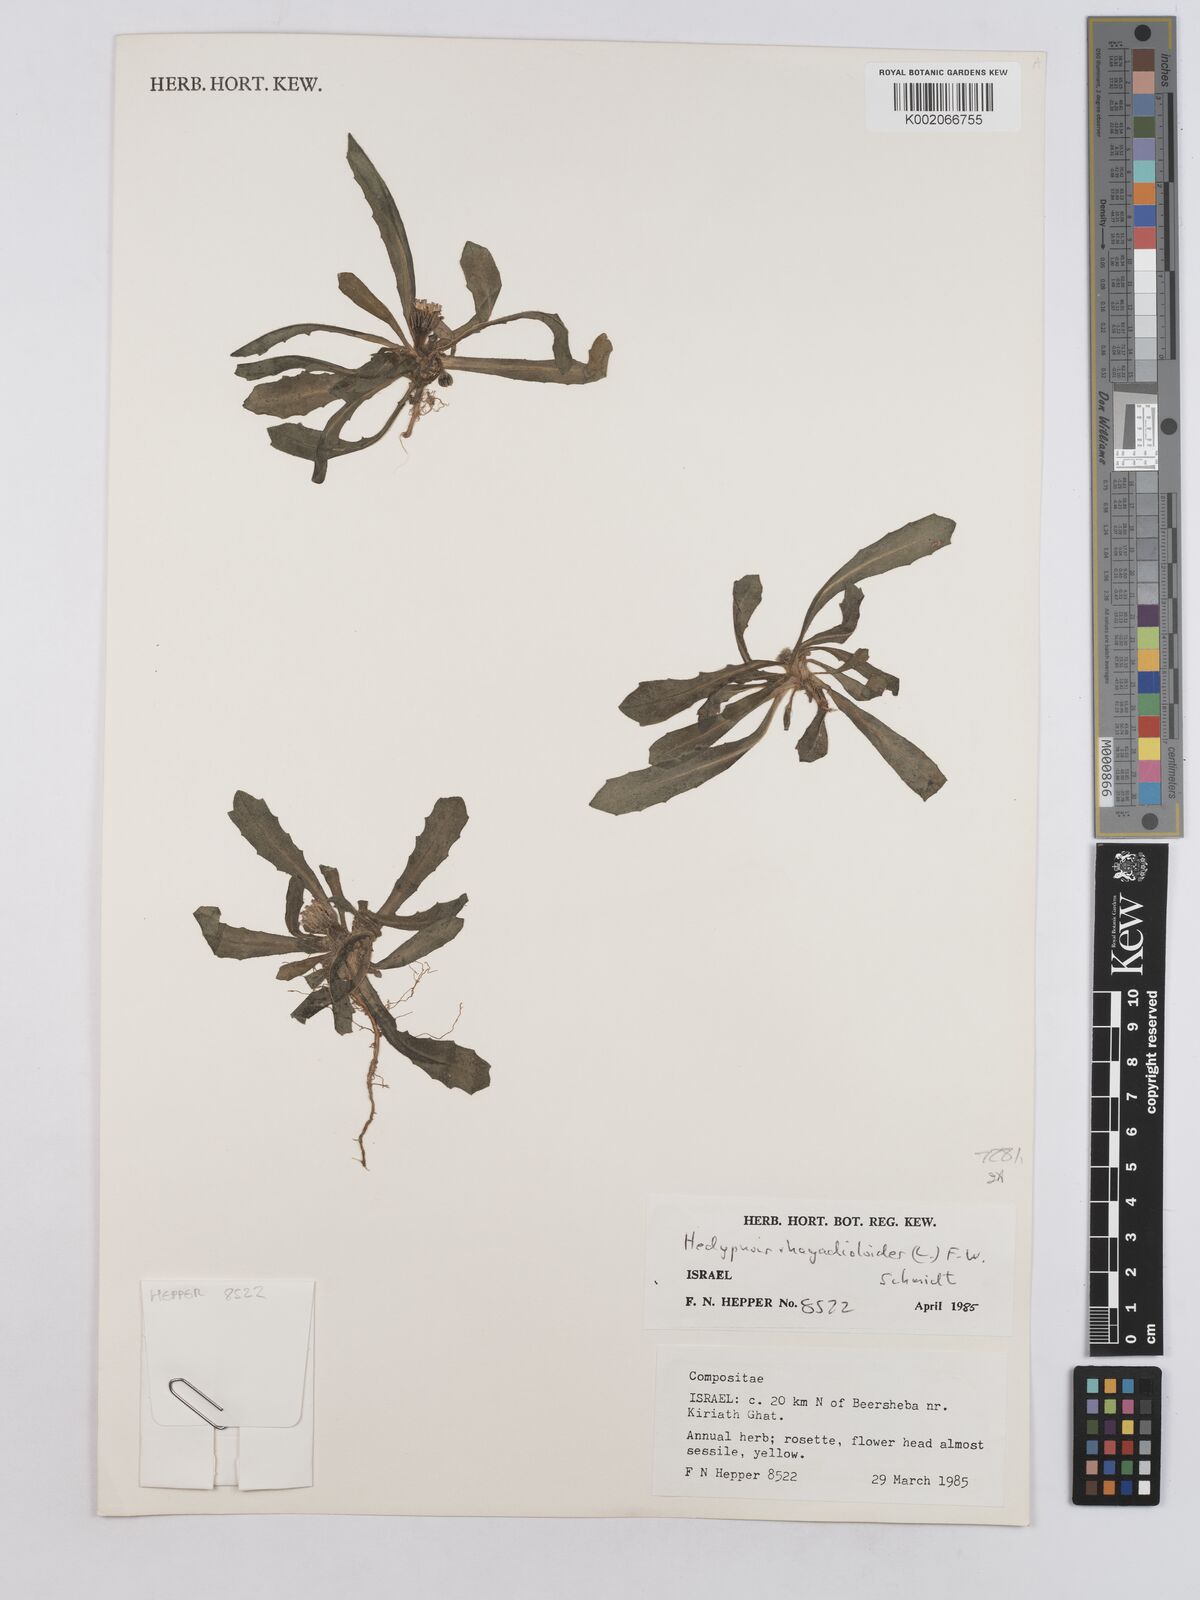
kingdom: Plantae
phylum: Tracheophyta
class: Magnoliopsida
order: Asterales
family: Asteraceae
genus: Hedypnois
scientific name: Hedypnois cretica
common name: Scaly hawkbit
